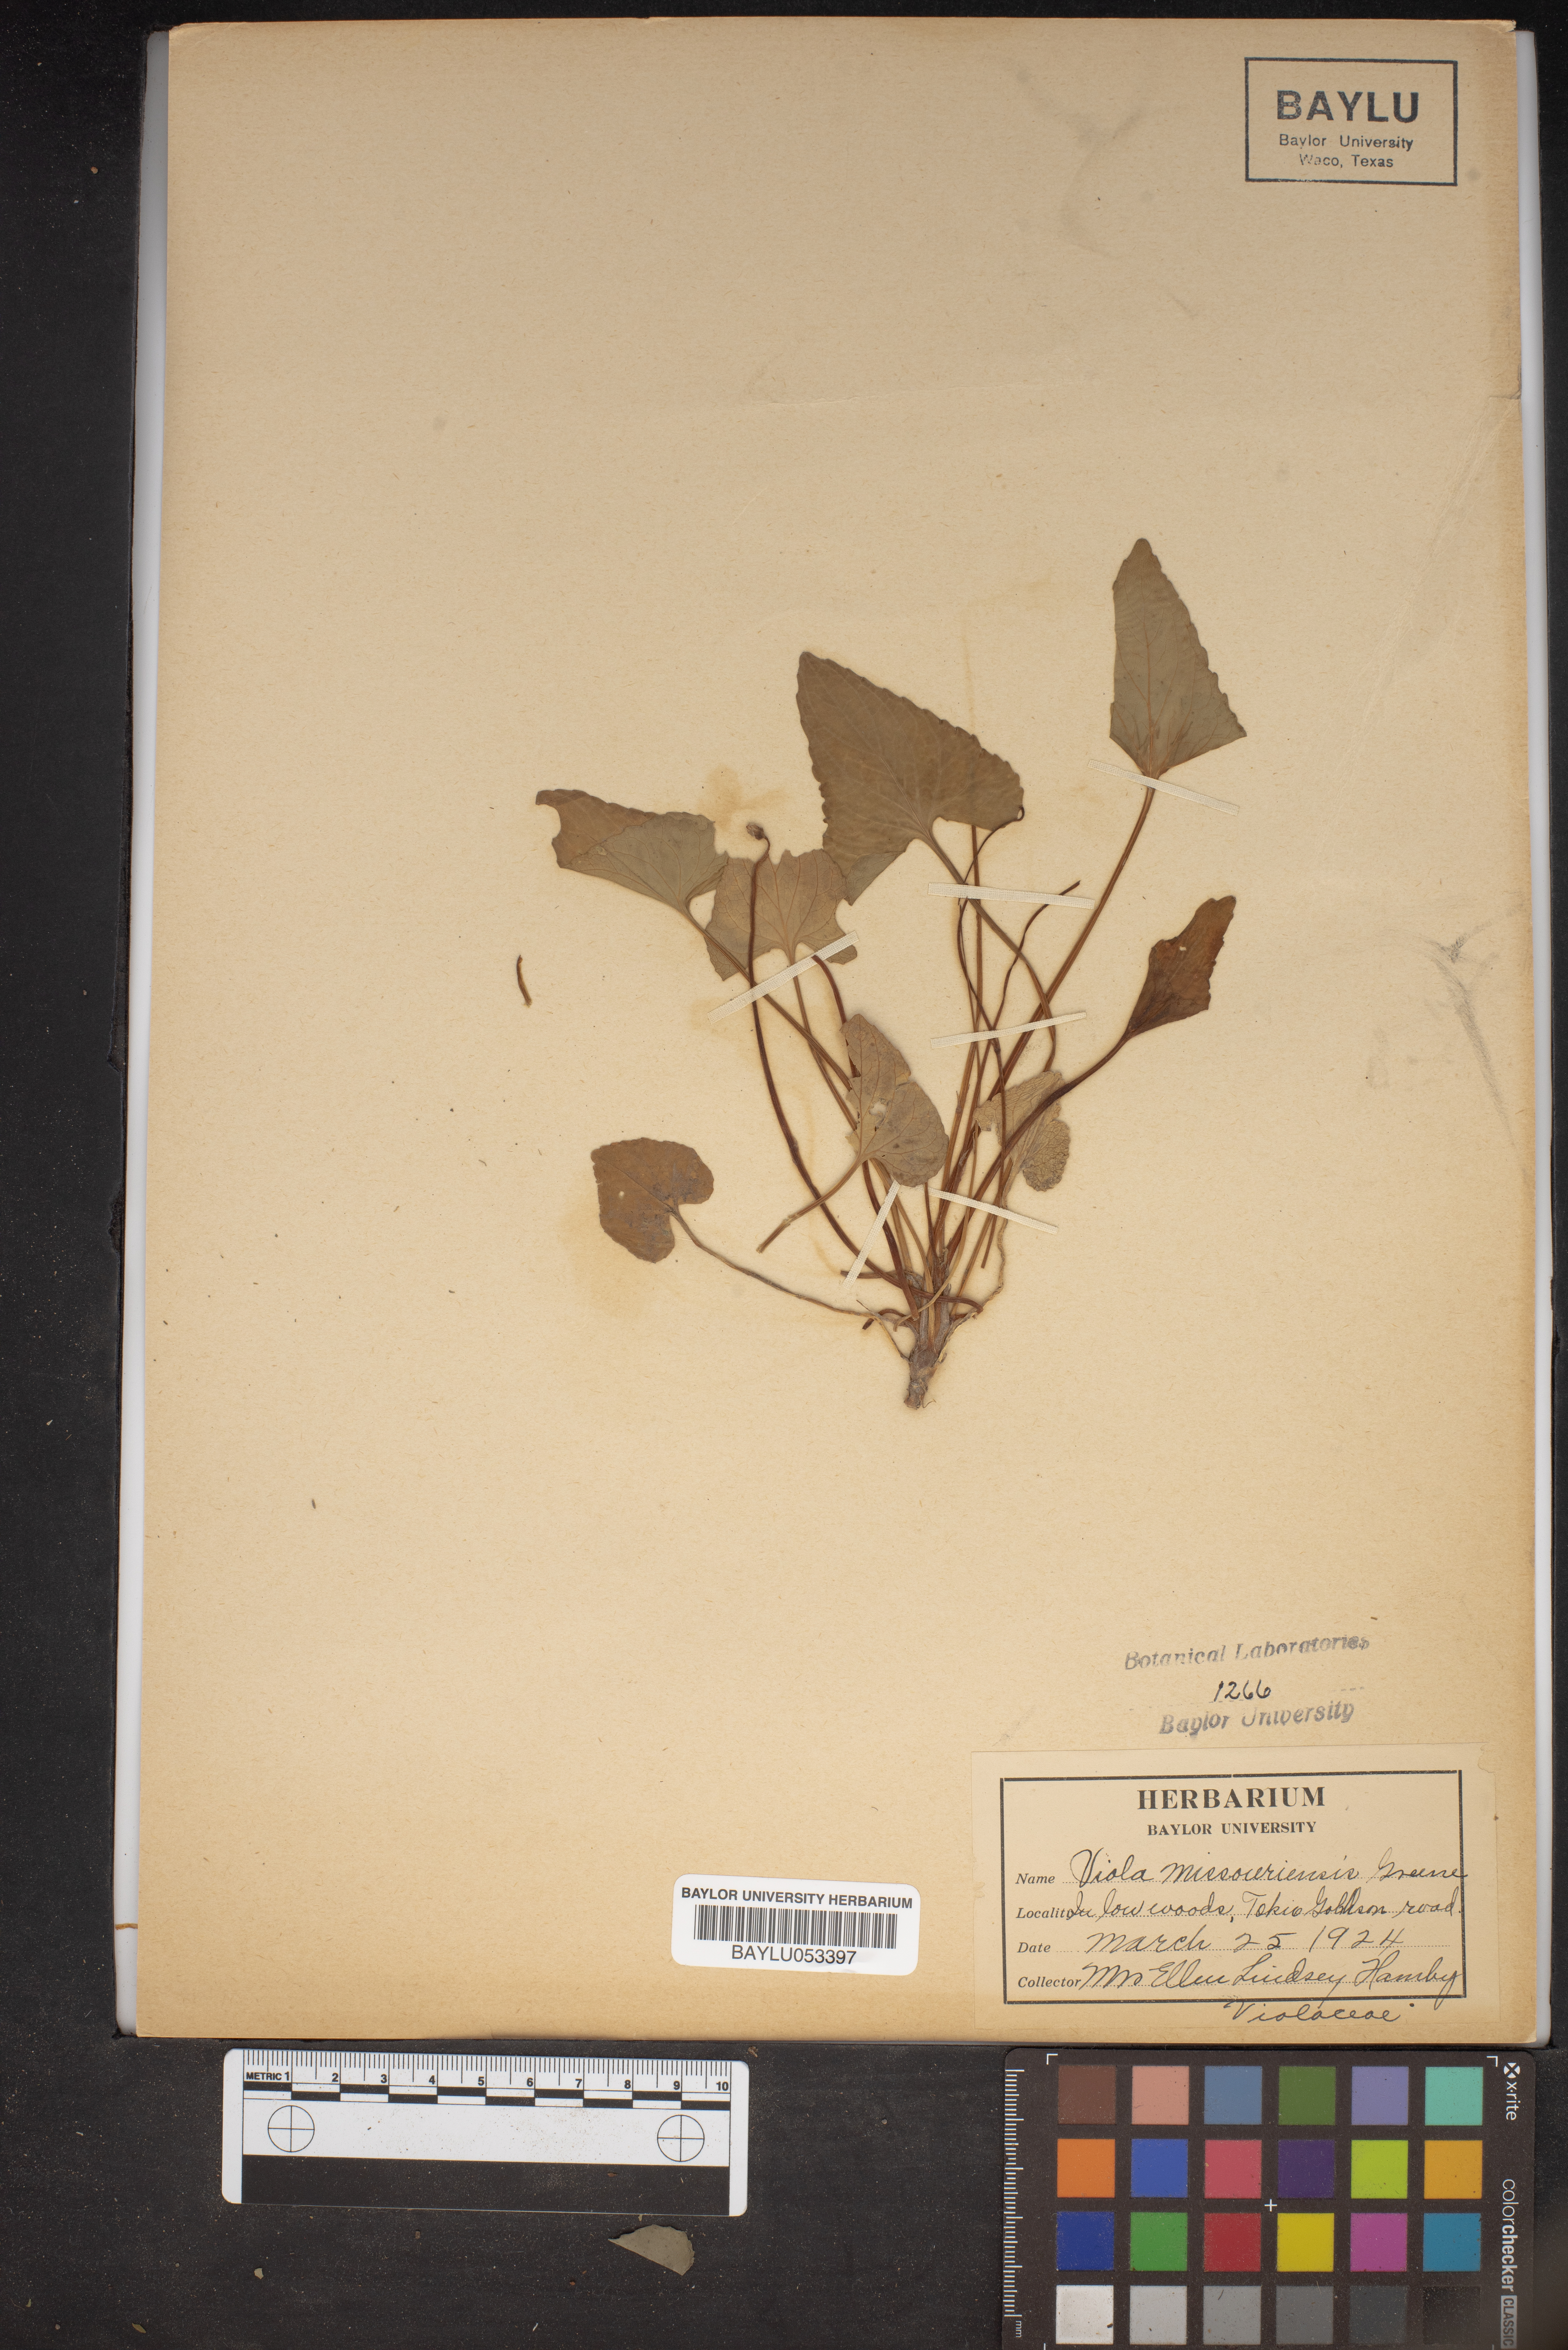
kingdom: Plantae
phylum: Tracheophyta
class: Magnoliopsida
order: Malpighiales
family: Violaceae
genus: Viola
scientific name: Viola missouriensis
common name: Missouri violet
